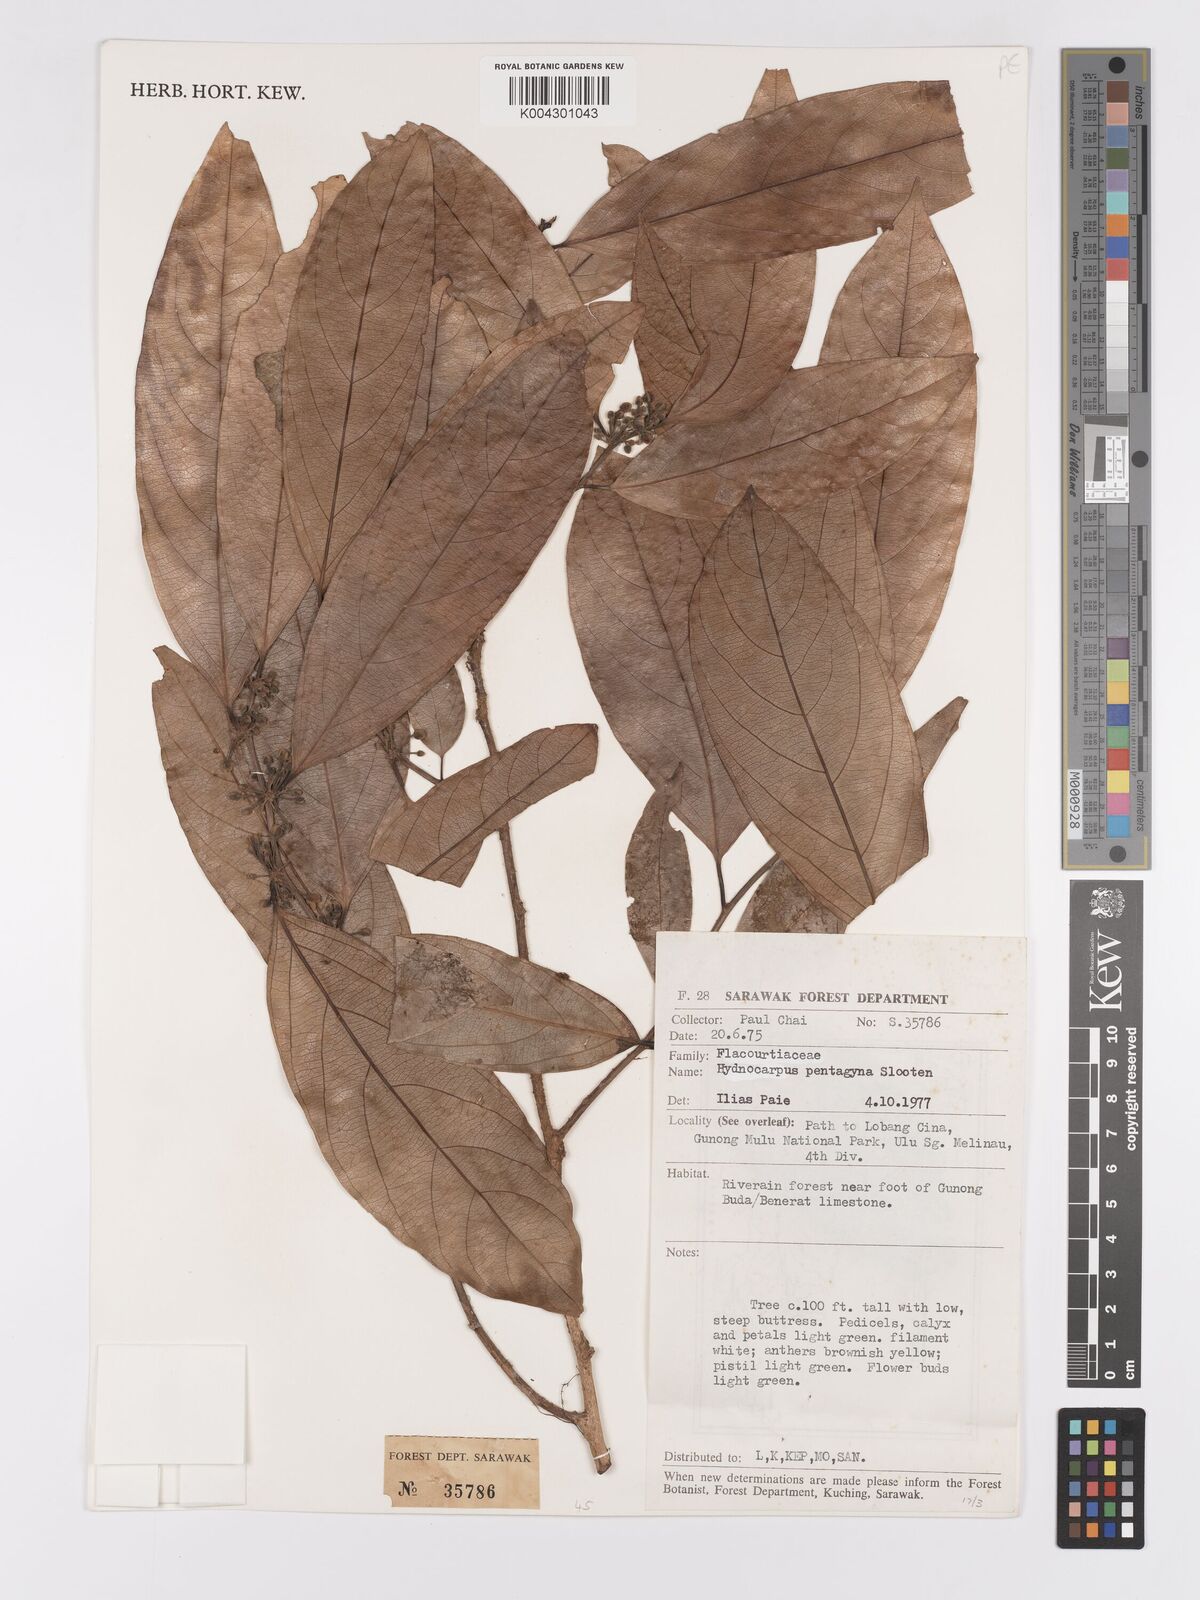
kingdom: Plantae
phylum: Tracheophyta
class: Magnoliopsida
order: Malpighiales
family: Achariaceae
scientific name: Achariaceae
